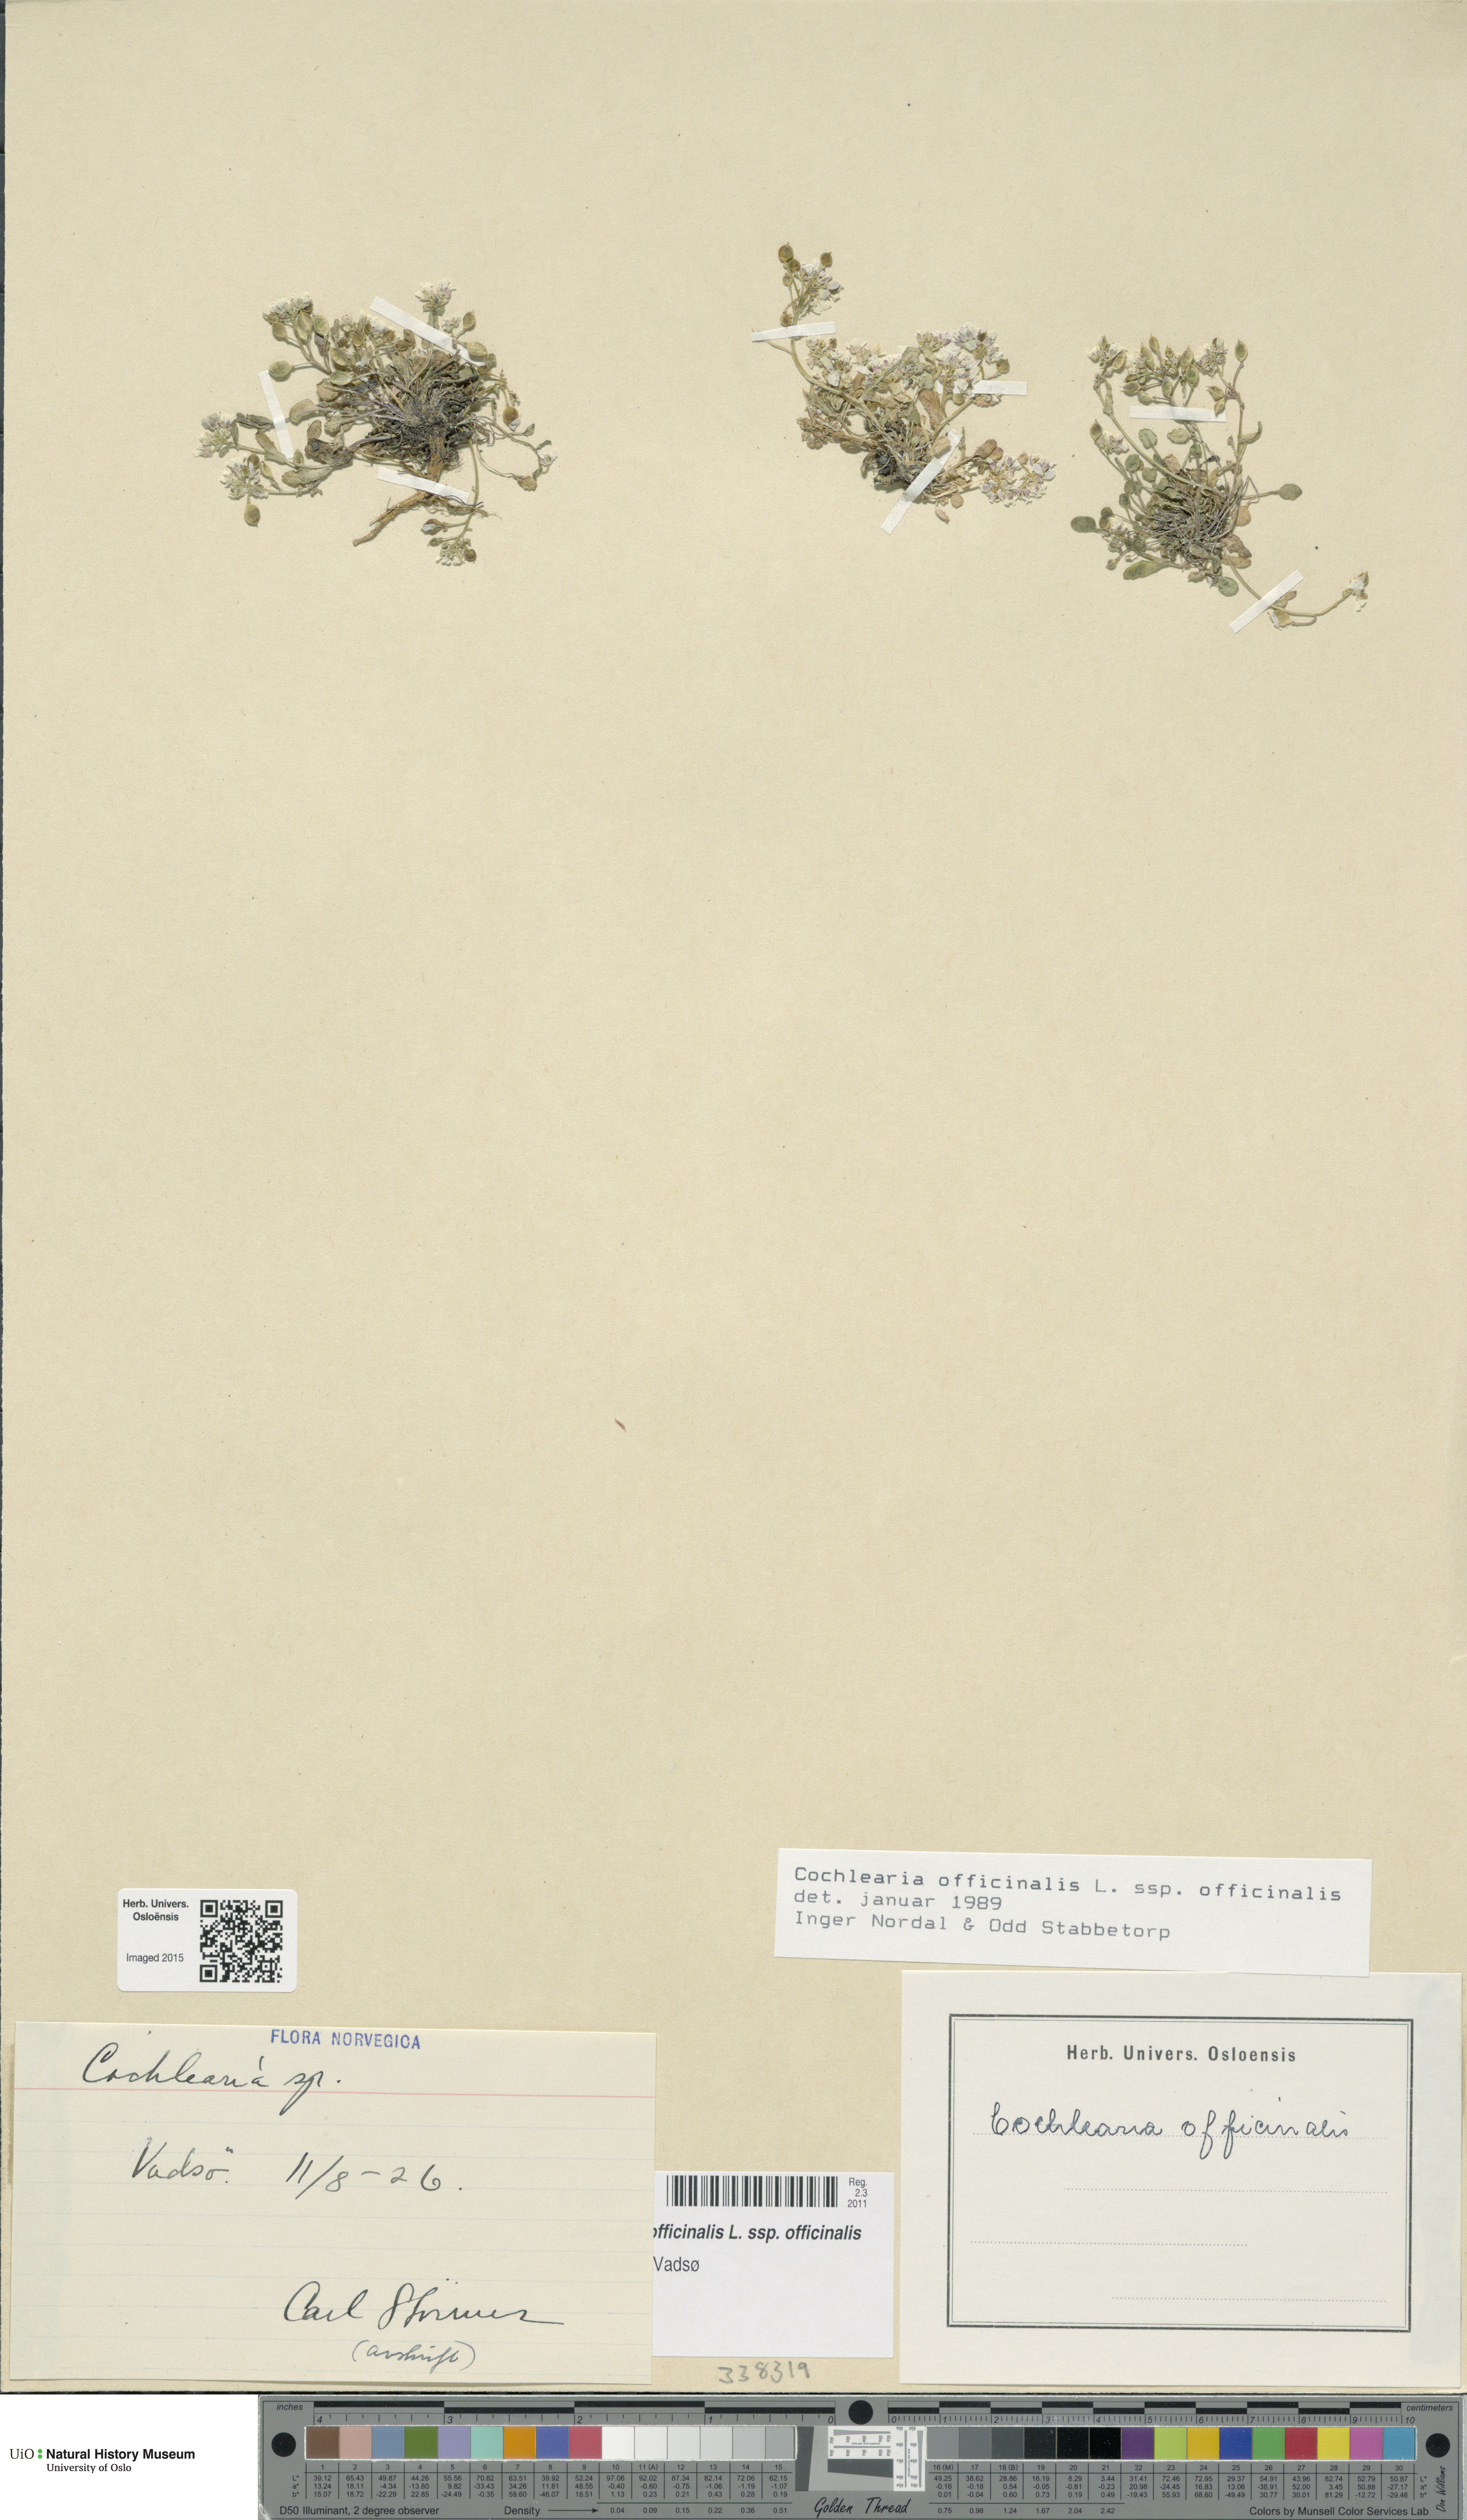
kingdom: Plantae
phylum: Tracheophyta
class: Magnoliopsida
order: Brassicales
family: Brassicaceae
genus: Cochlearia
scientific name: Cochlearia officinalis
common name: Scurvy-grass
